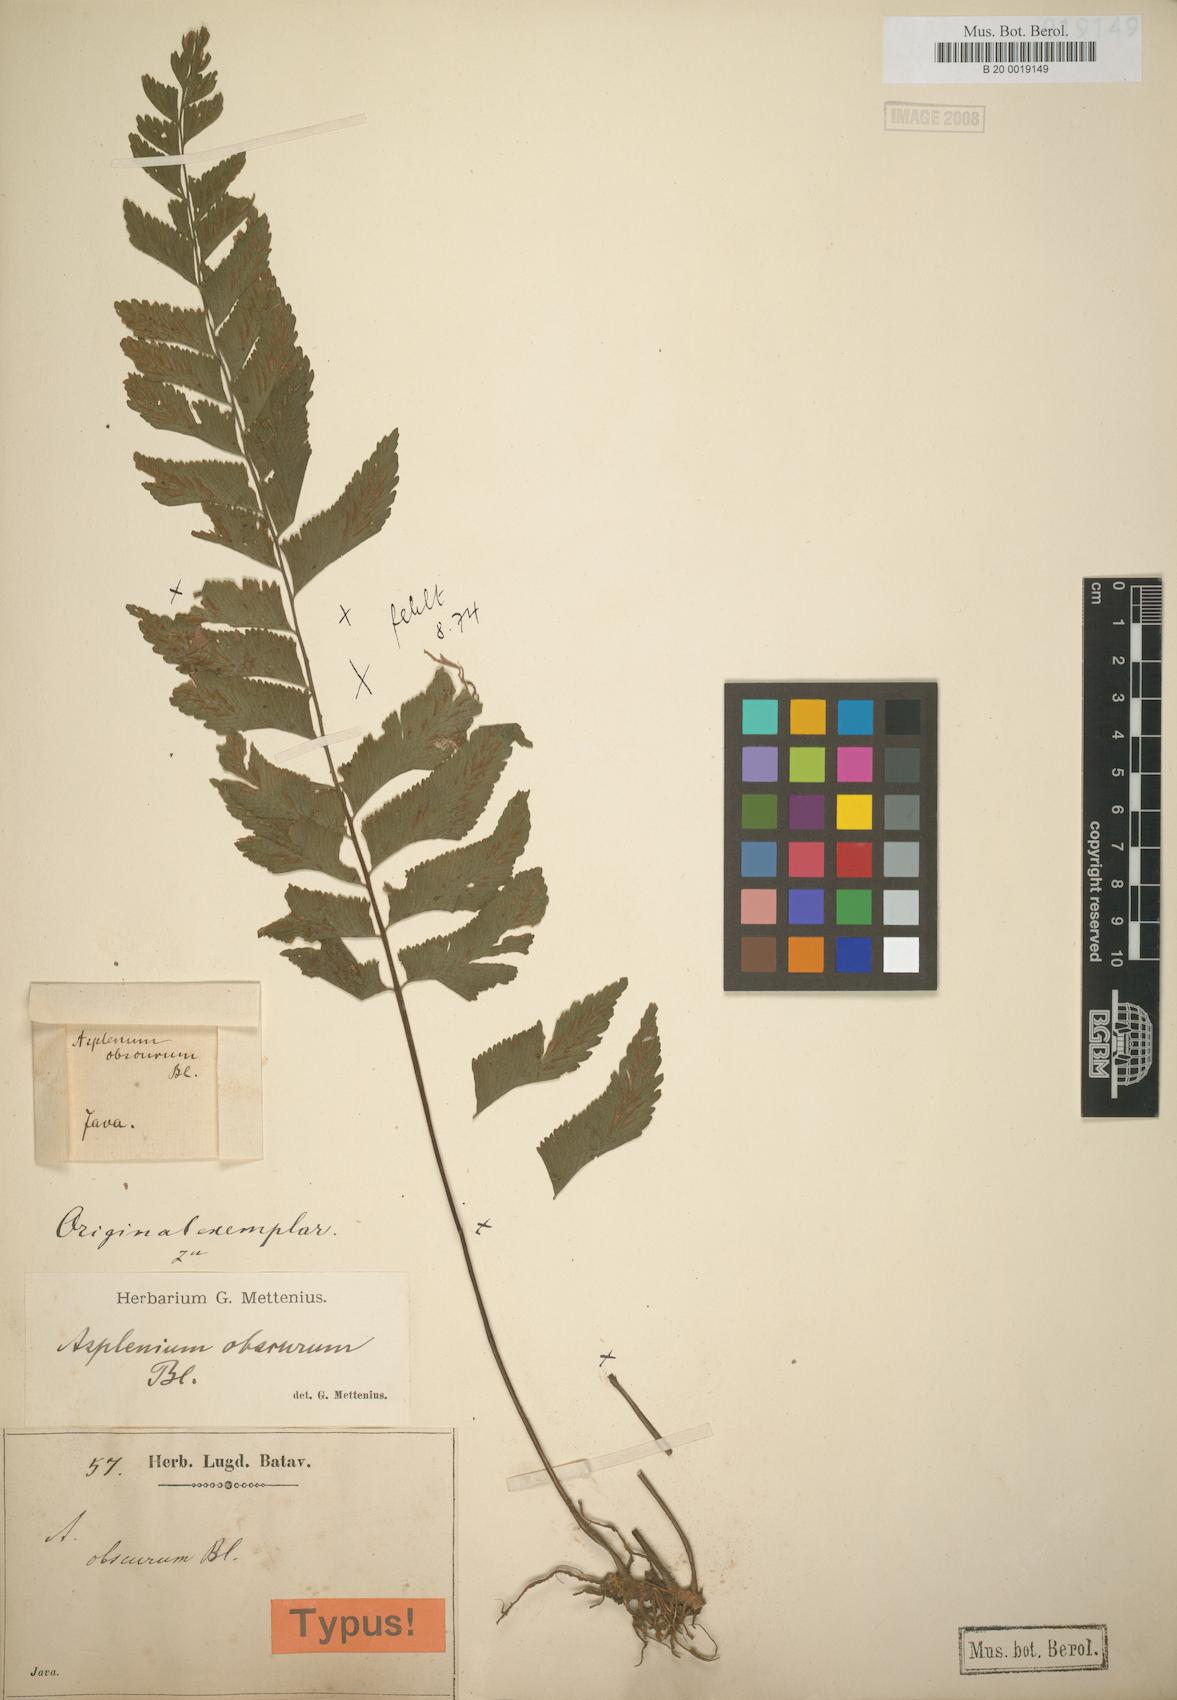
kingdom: Plantae
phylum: Tracheophyta
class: Polypodiopsida
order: Polypodiales
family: Aspleniaceae
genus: Hymenasplenium
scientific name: Hymenasplenium obscurum
